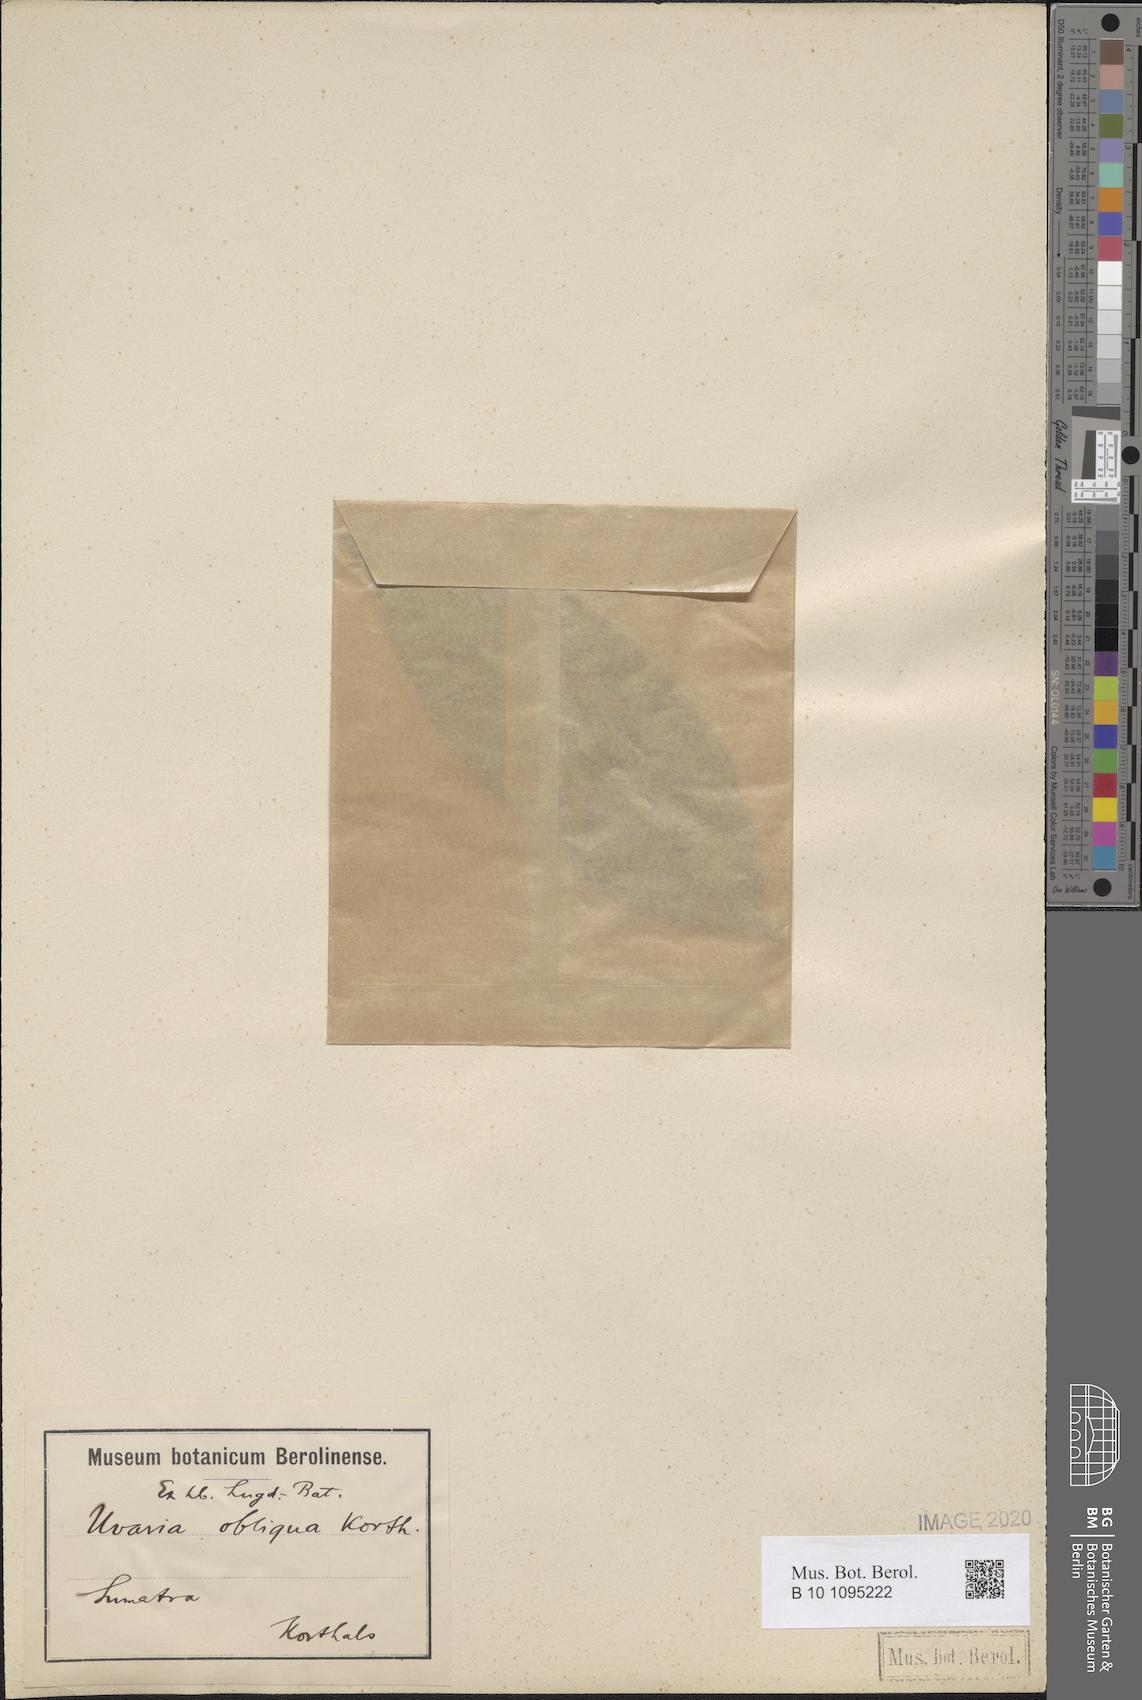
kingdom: Plantae
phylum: Tracheophyta
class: Magnoliopsida
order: Magnoliales
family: Annonaceae
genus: Uvaria
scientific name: Uvaria
